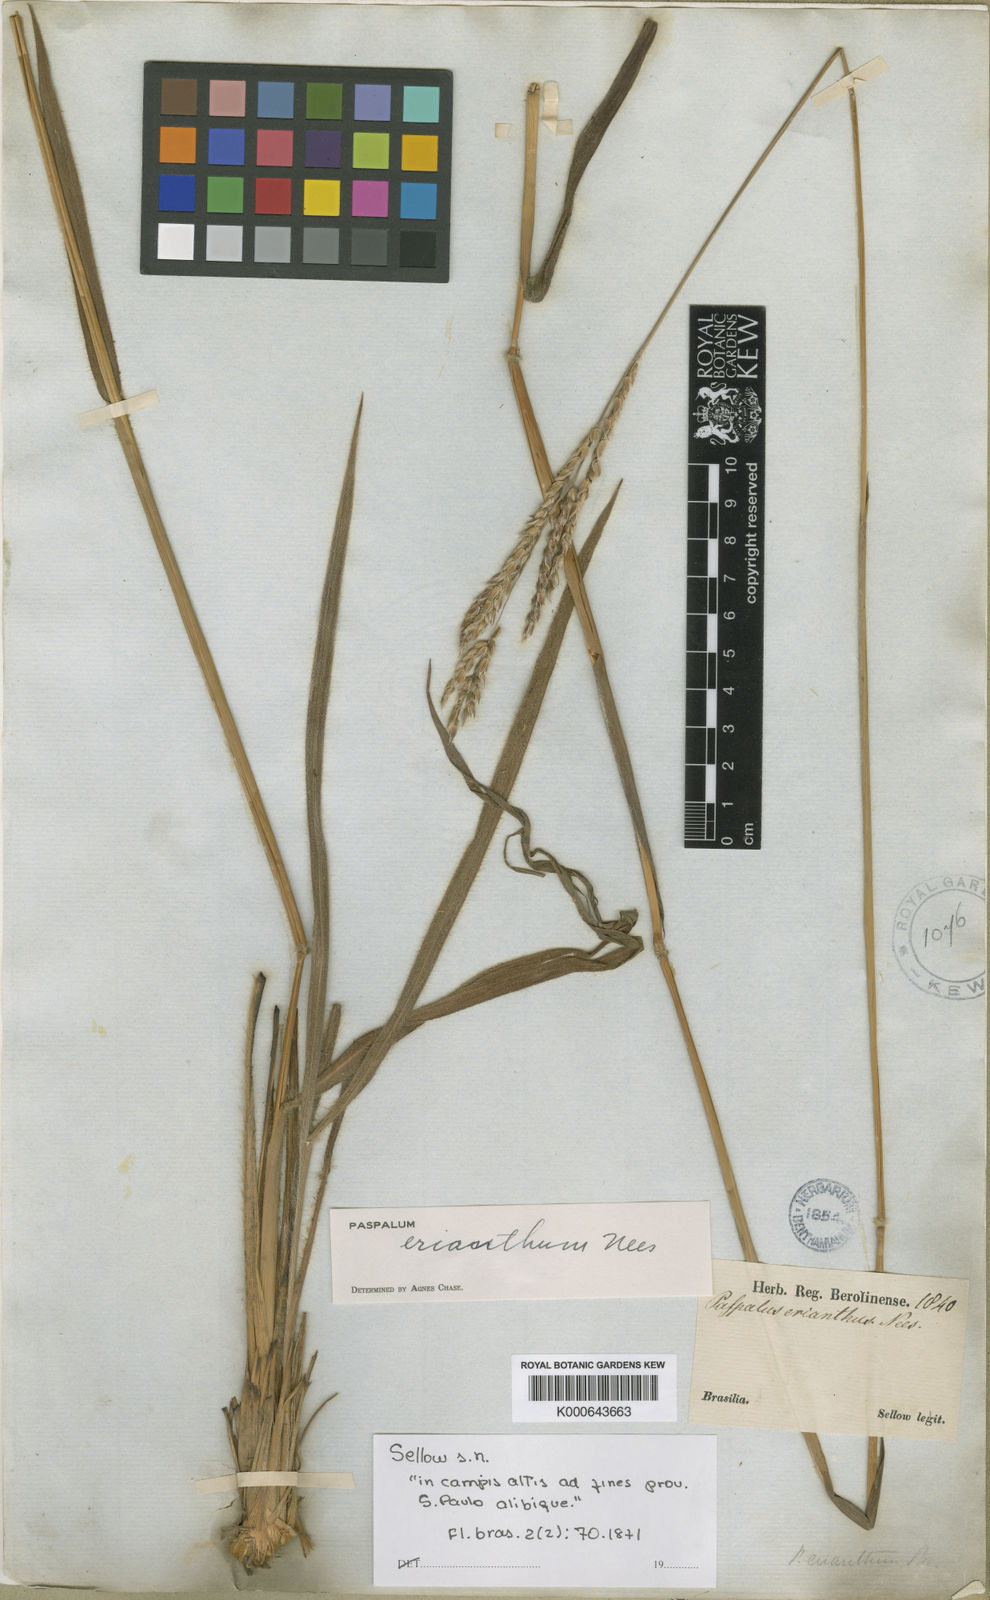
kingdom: Plantae
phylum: Tracheophyta
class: Liliopsida
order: Poales
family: Poaceae
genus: Paspalum
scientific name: Paspalum erianthum
